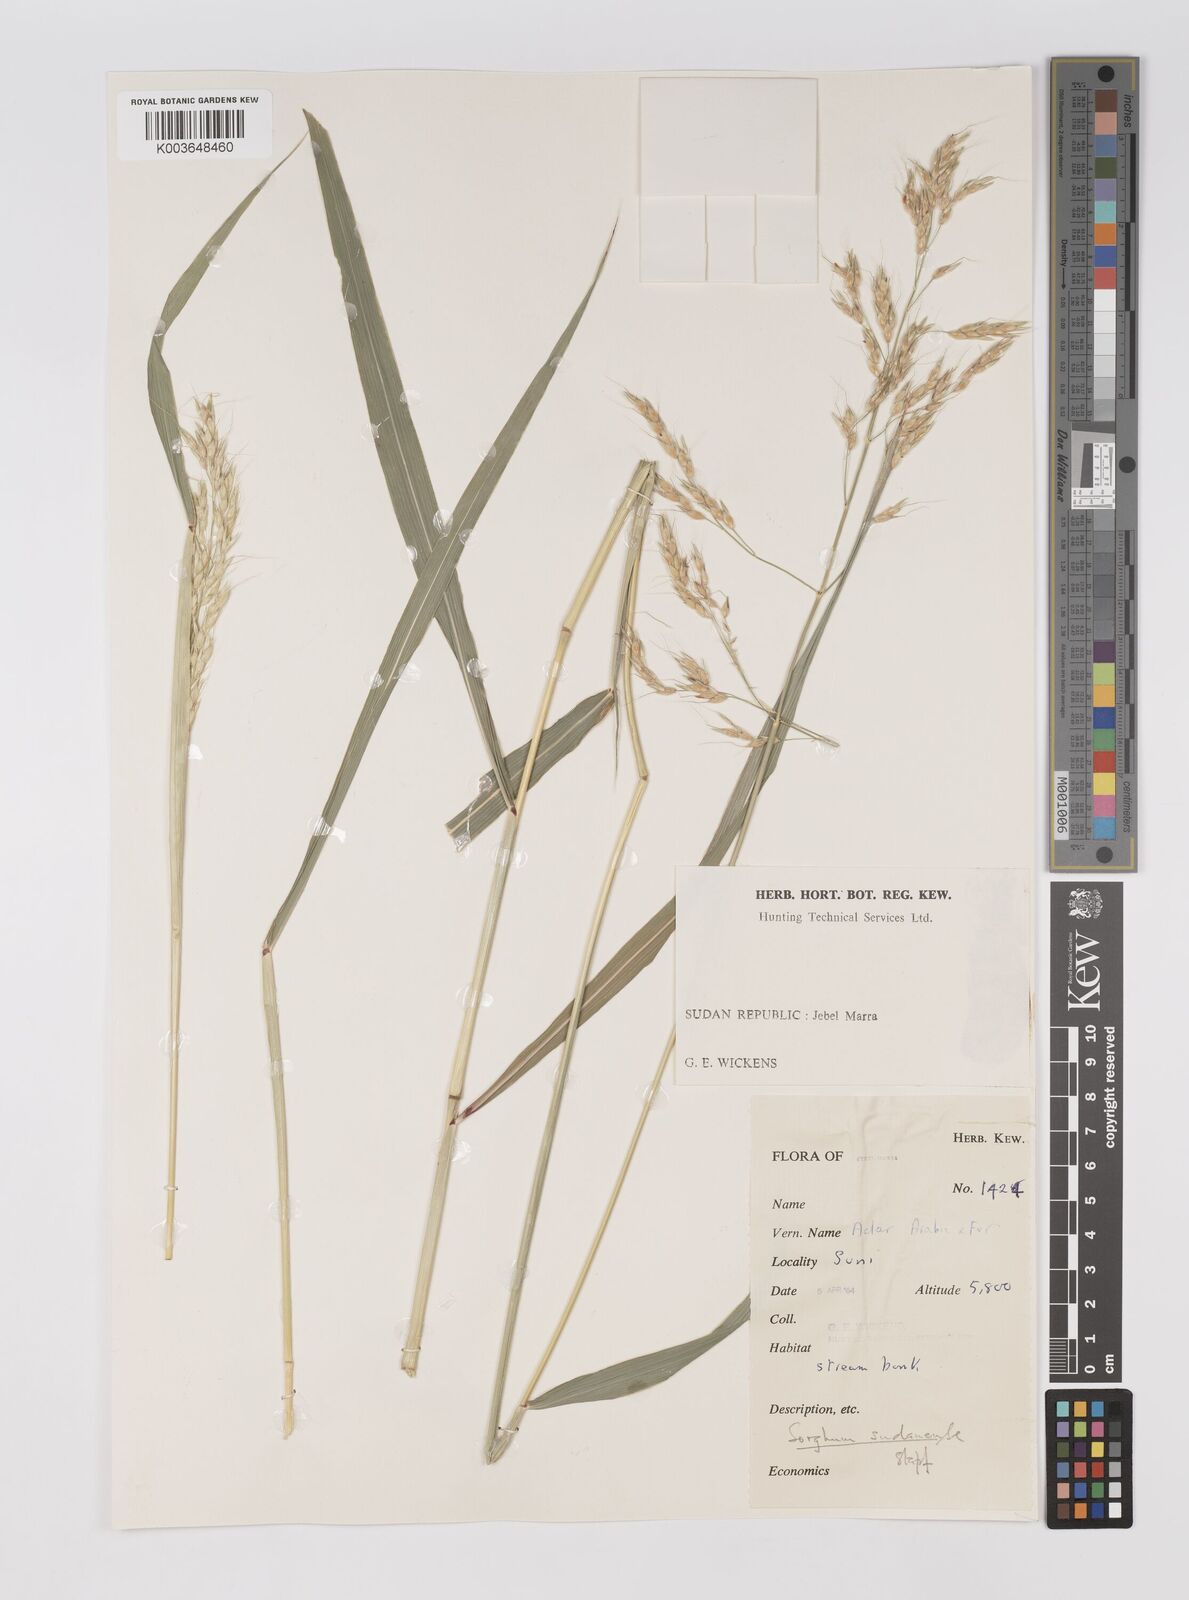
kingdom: Plantae
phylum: Tracheophyta
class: Liliopsida
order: Poales
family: Poaceae
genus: Sorghum
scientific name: Sorghum arundinaceum
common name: Sorghum
